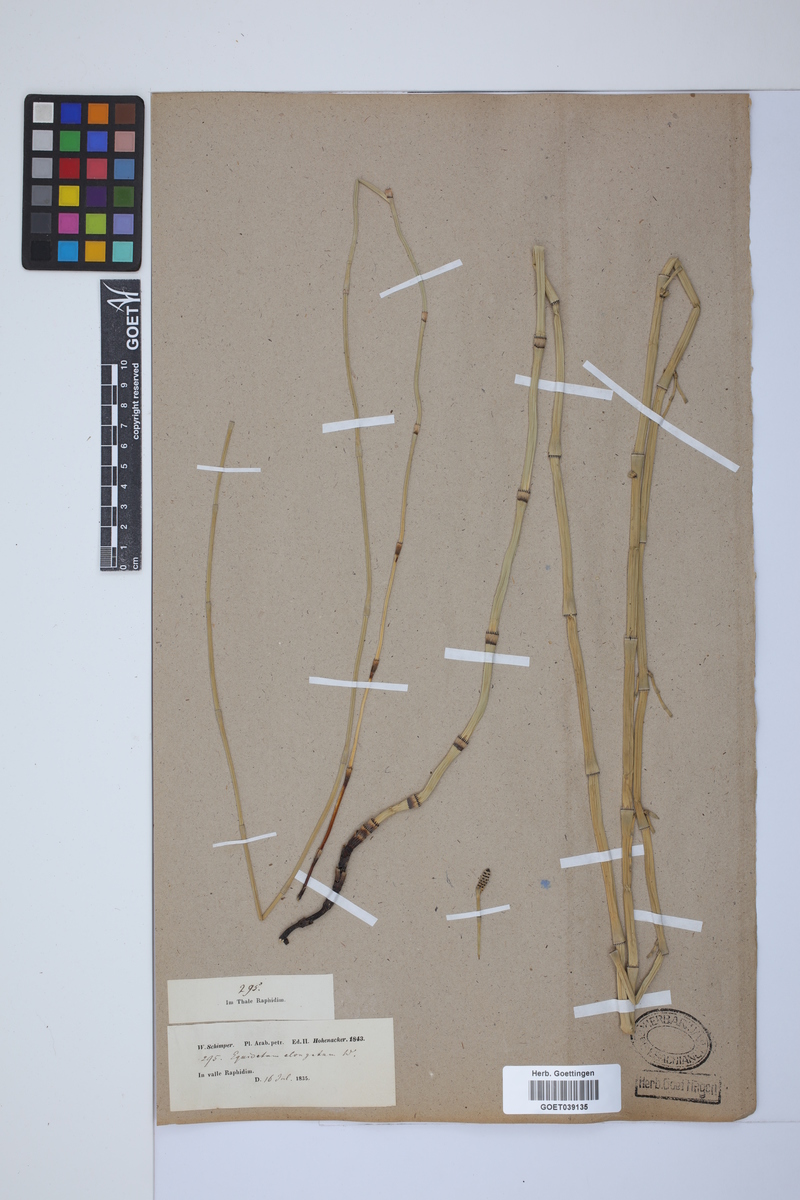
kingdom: Plantae
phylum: Tracheophyta
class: Polypodiopsida
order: Equisetales
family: Equisetaceae
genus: Equisetum
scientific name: Equisetum giganteum
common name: Giant horsetail
